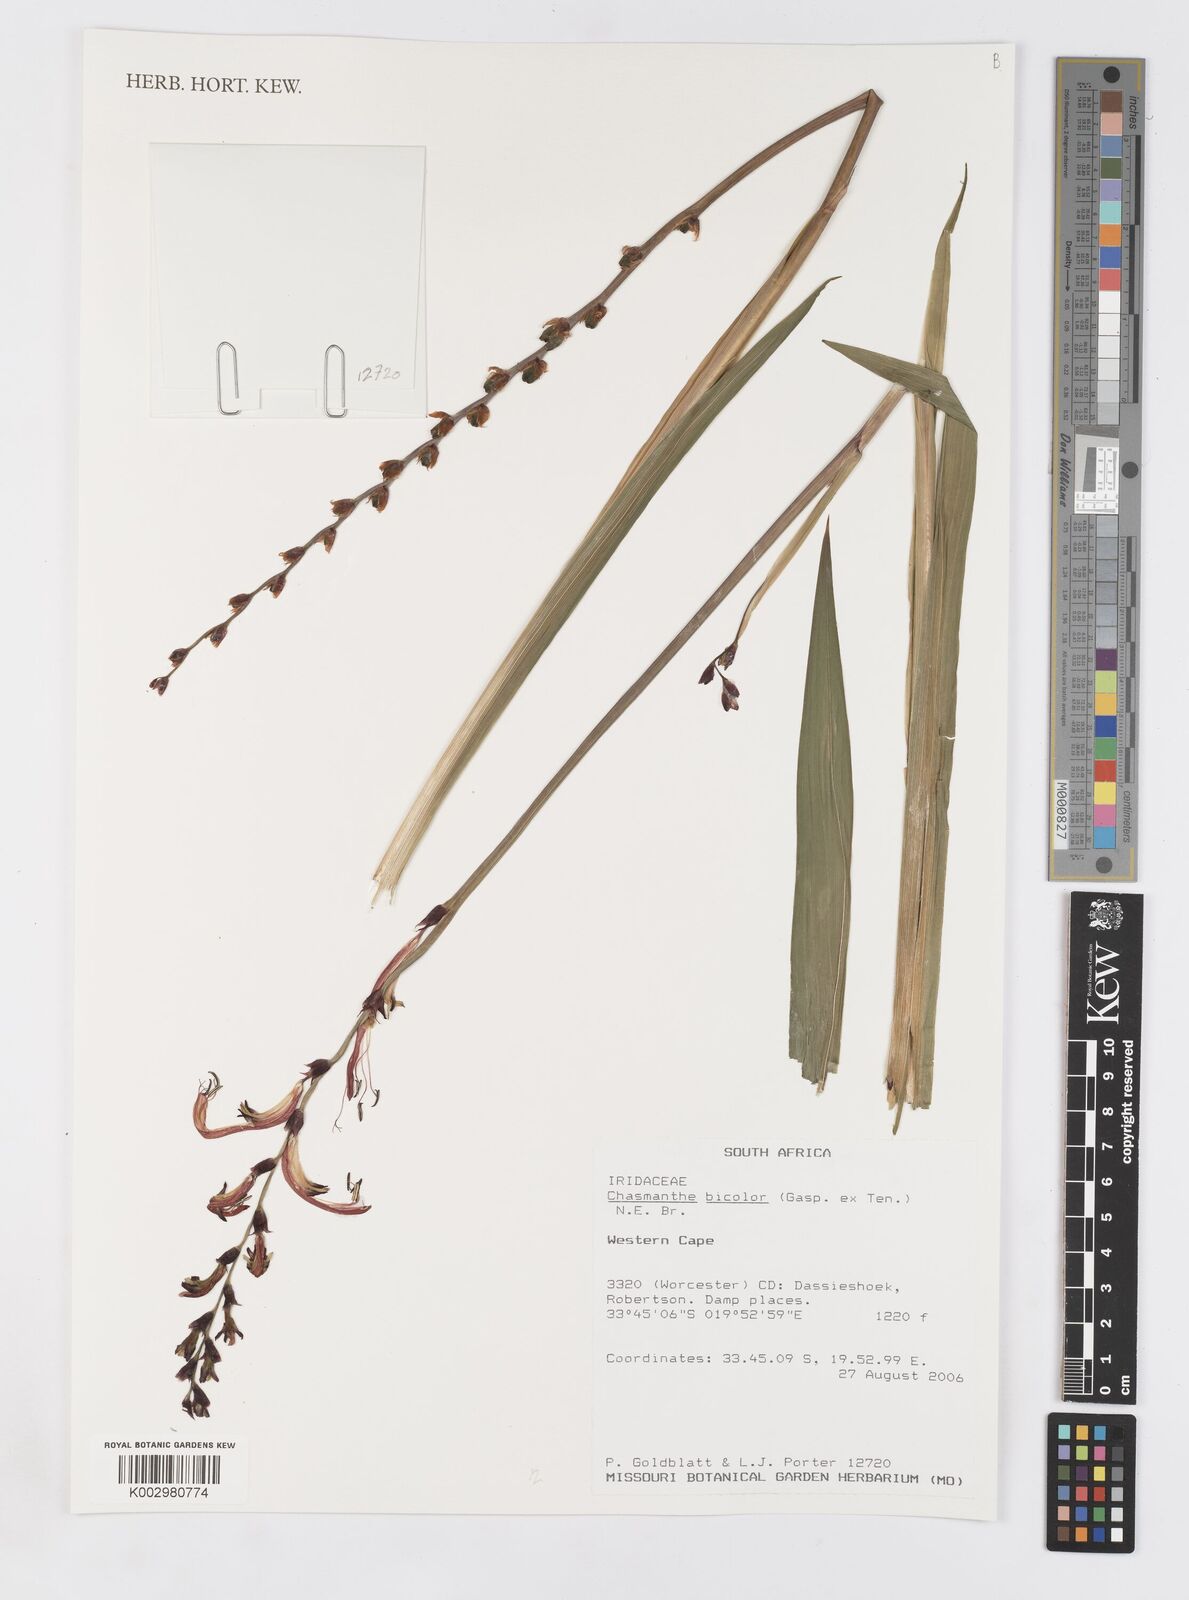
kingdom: Plantae
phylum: Tracheophyta
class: Liliopsida
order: Asparagales
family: Iridaceae
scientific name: Iridaceae
